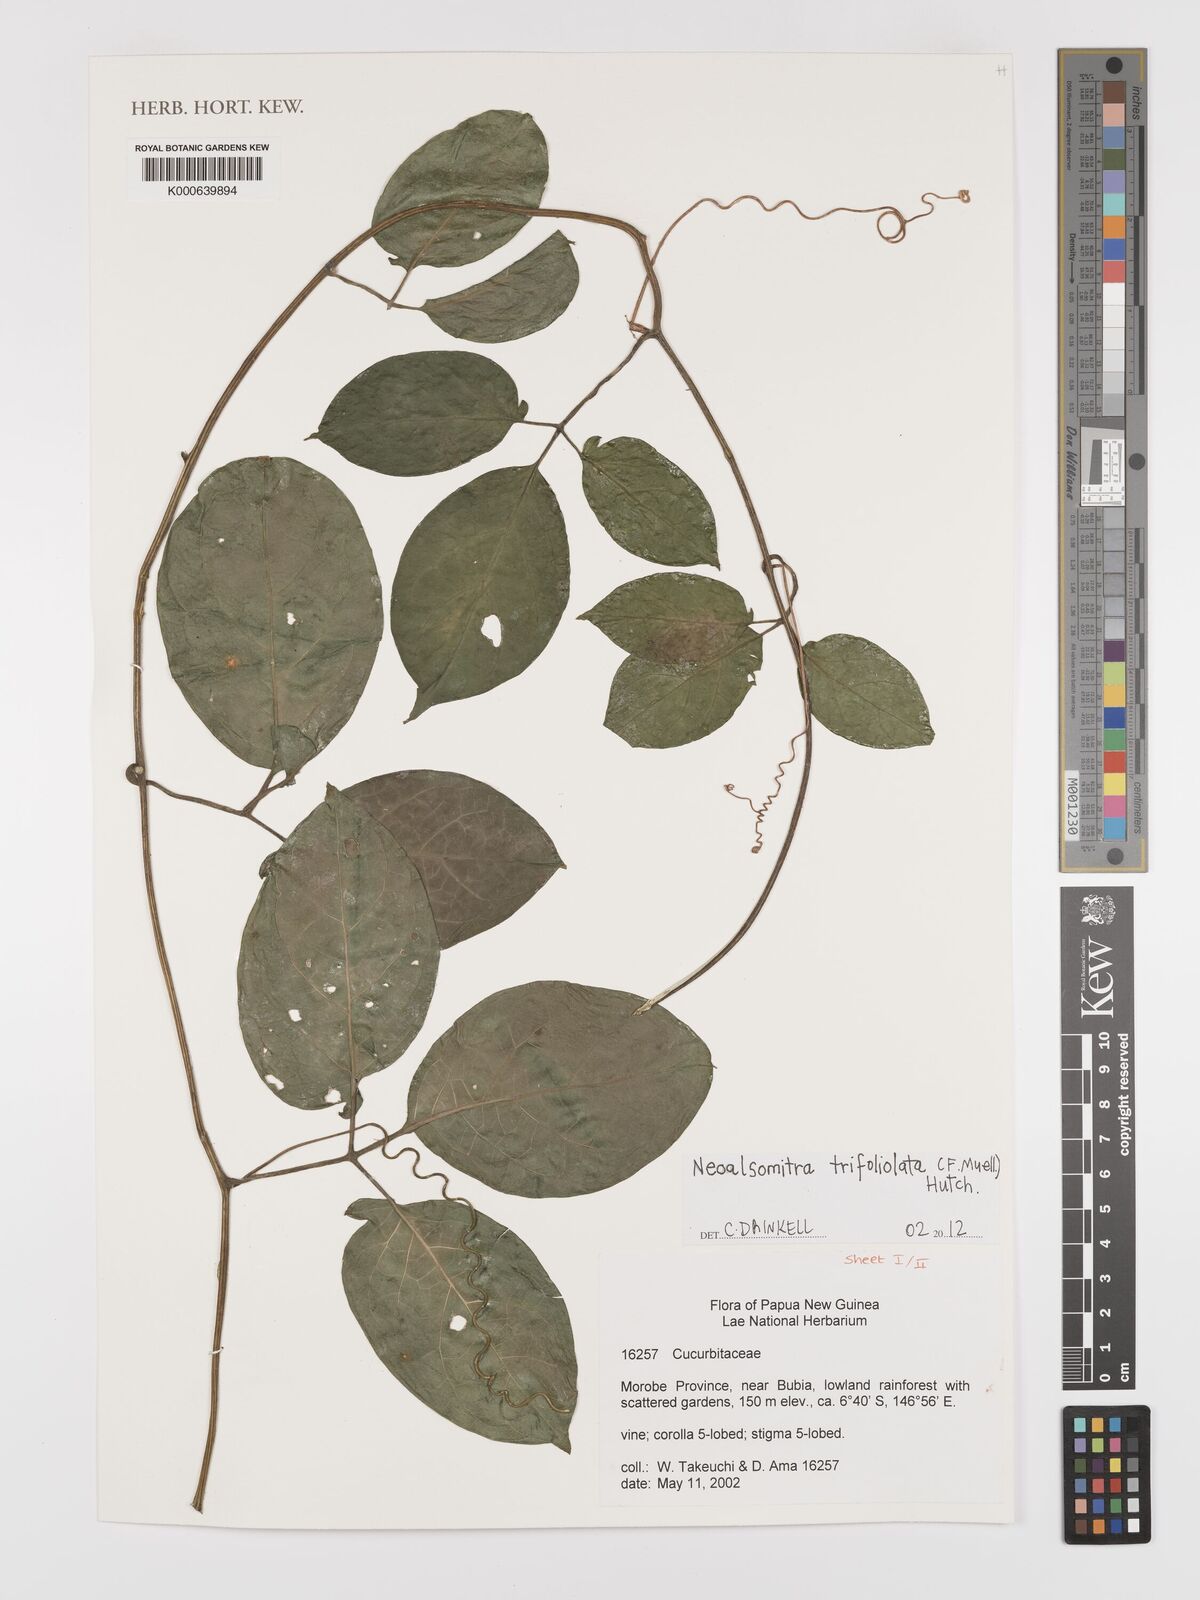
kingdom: Plantae
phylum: Tracheophyta
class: Magnoliopsida
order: Cucurbitales
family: Cucurbitaceae
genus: Neoalsomitra
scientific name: Neoalsomitra trifoliolata
